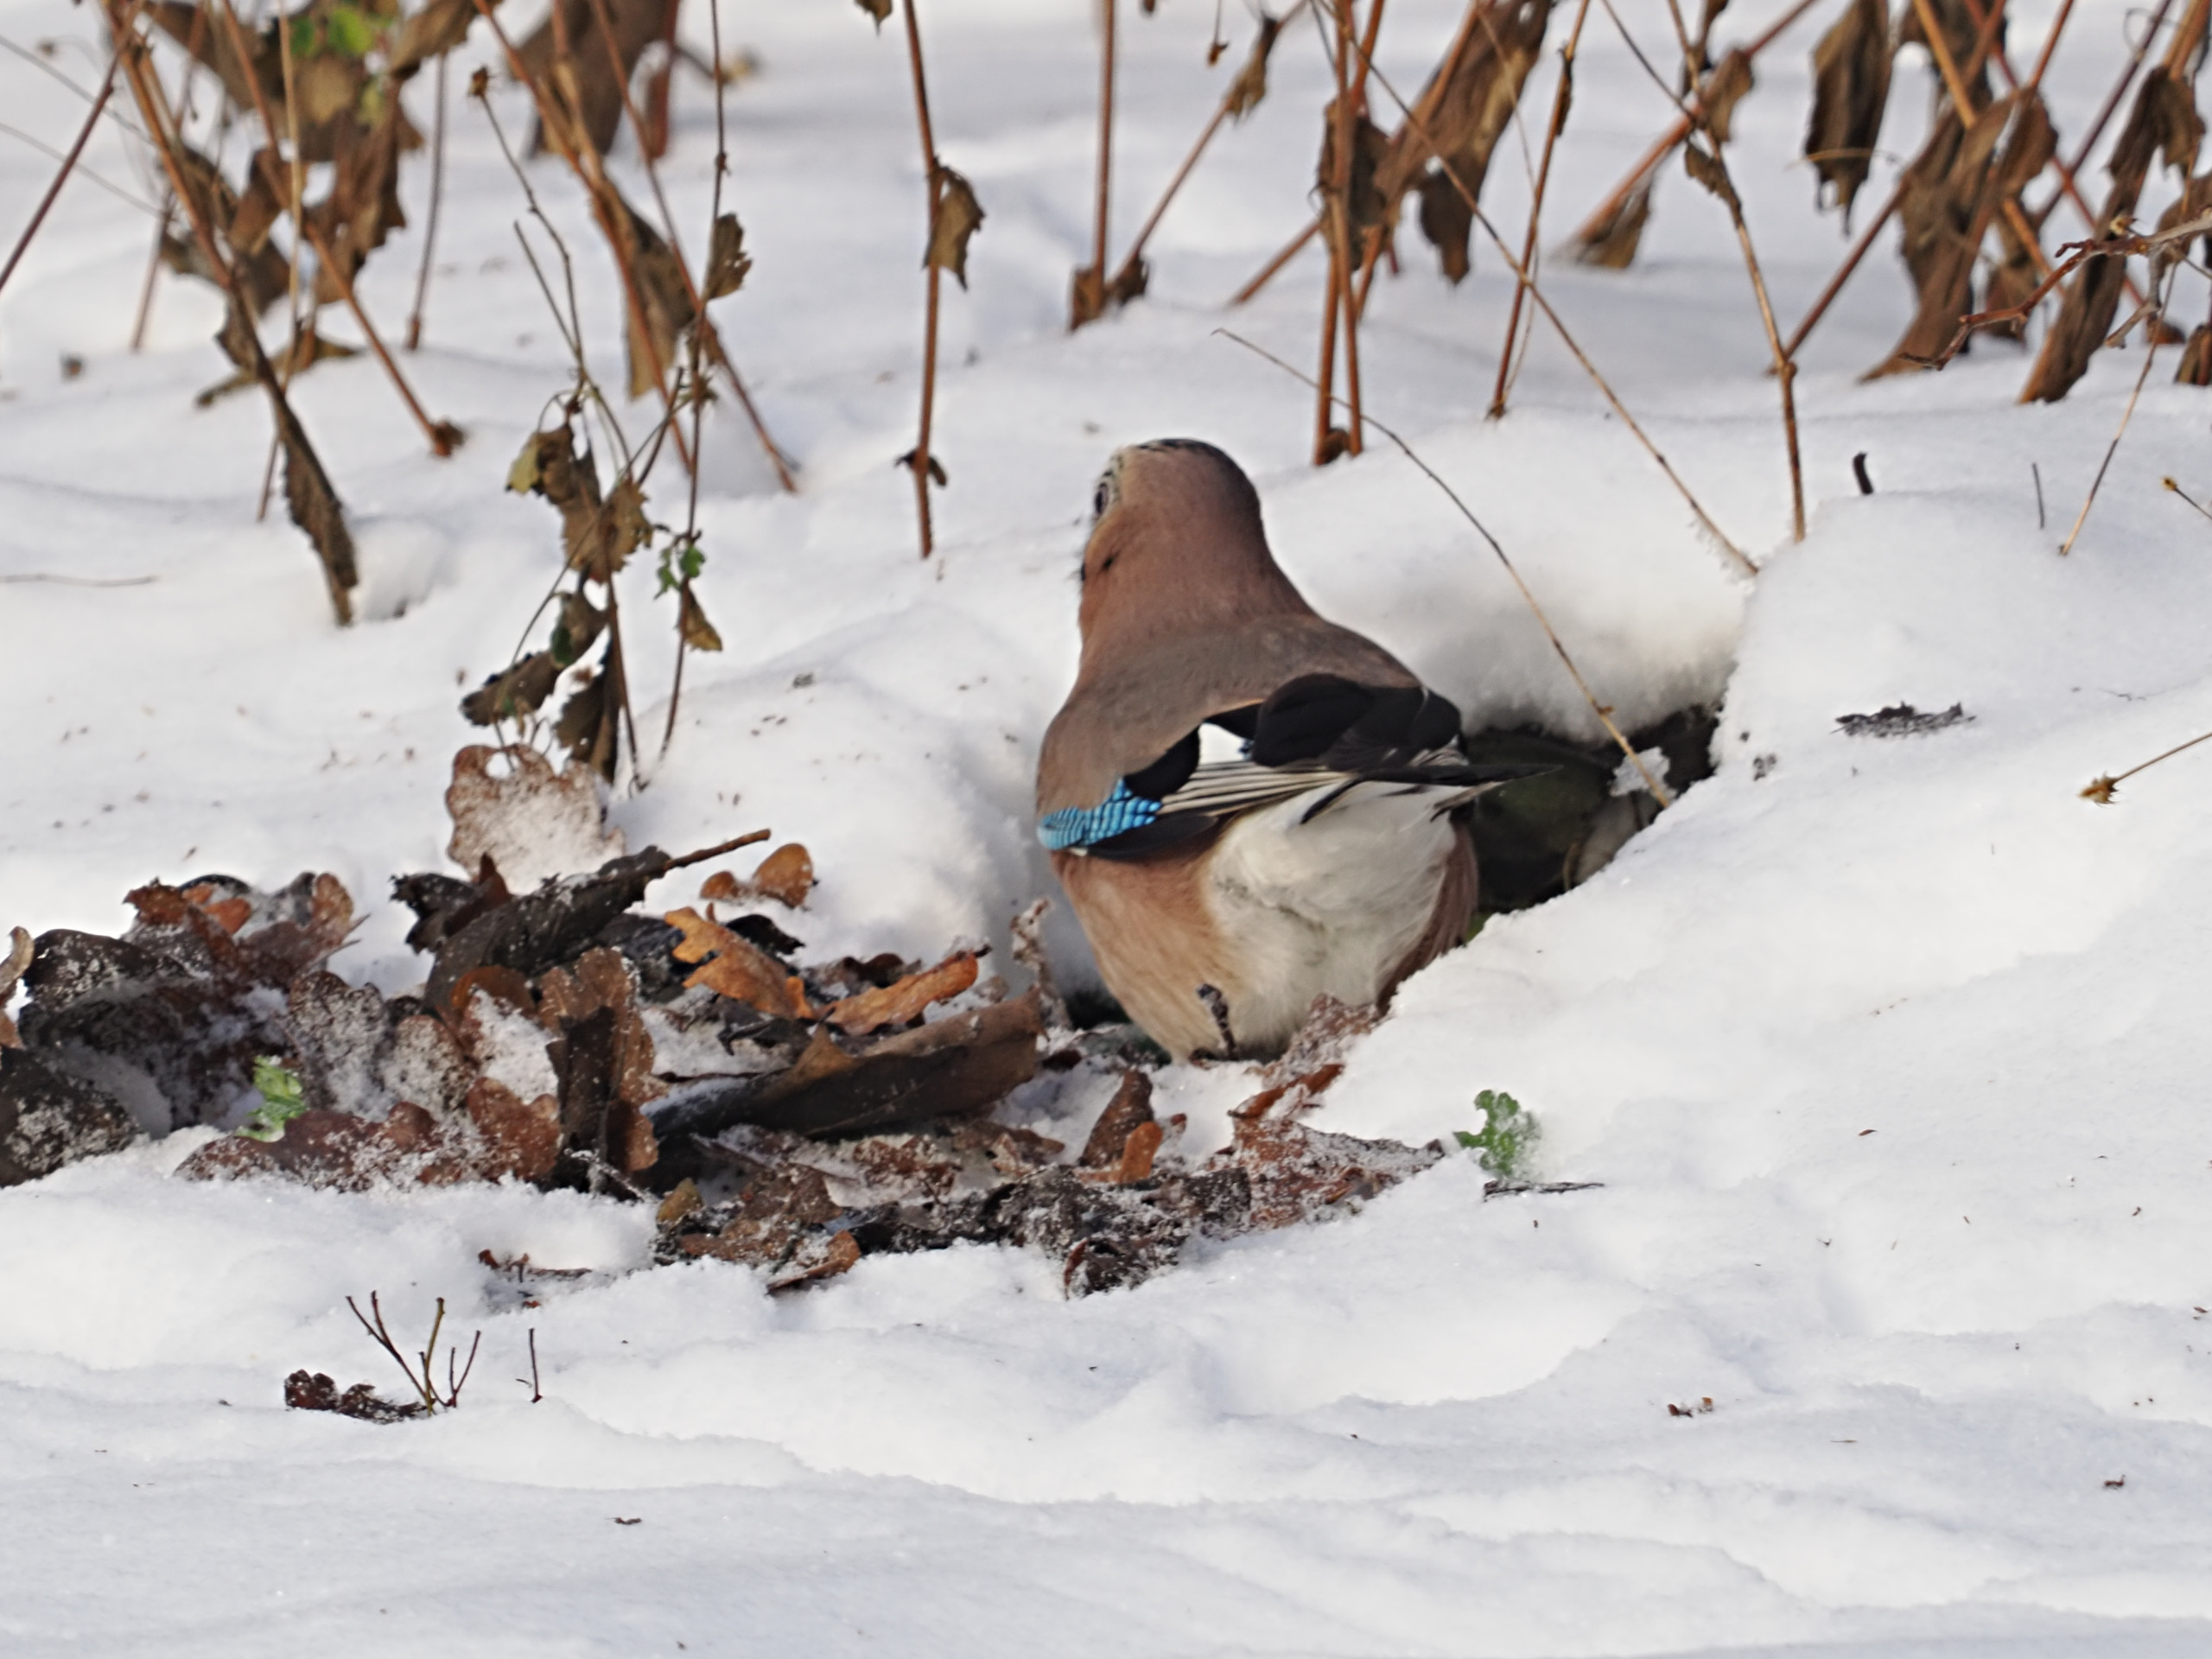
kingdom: Animalia
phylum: Chordata
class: Aves
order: Passeriformes
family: Corvidae
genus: Garrulus
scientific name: Garrulus glandarius
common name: Skovskade
